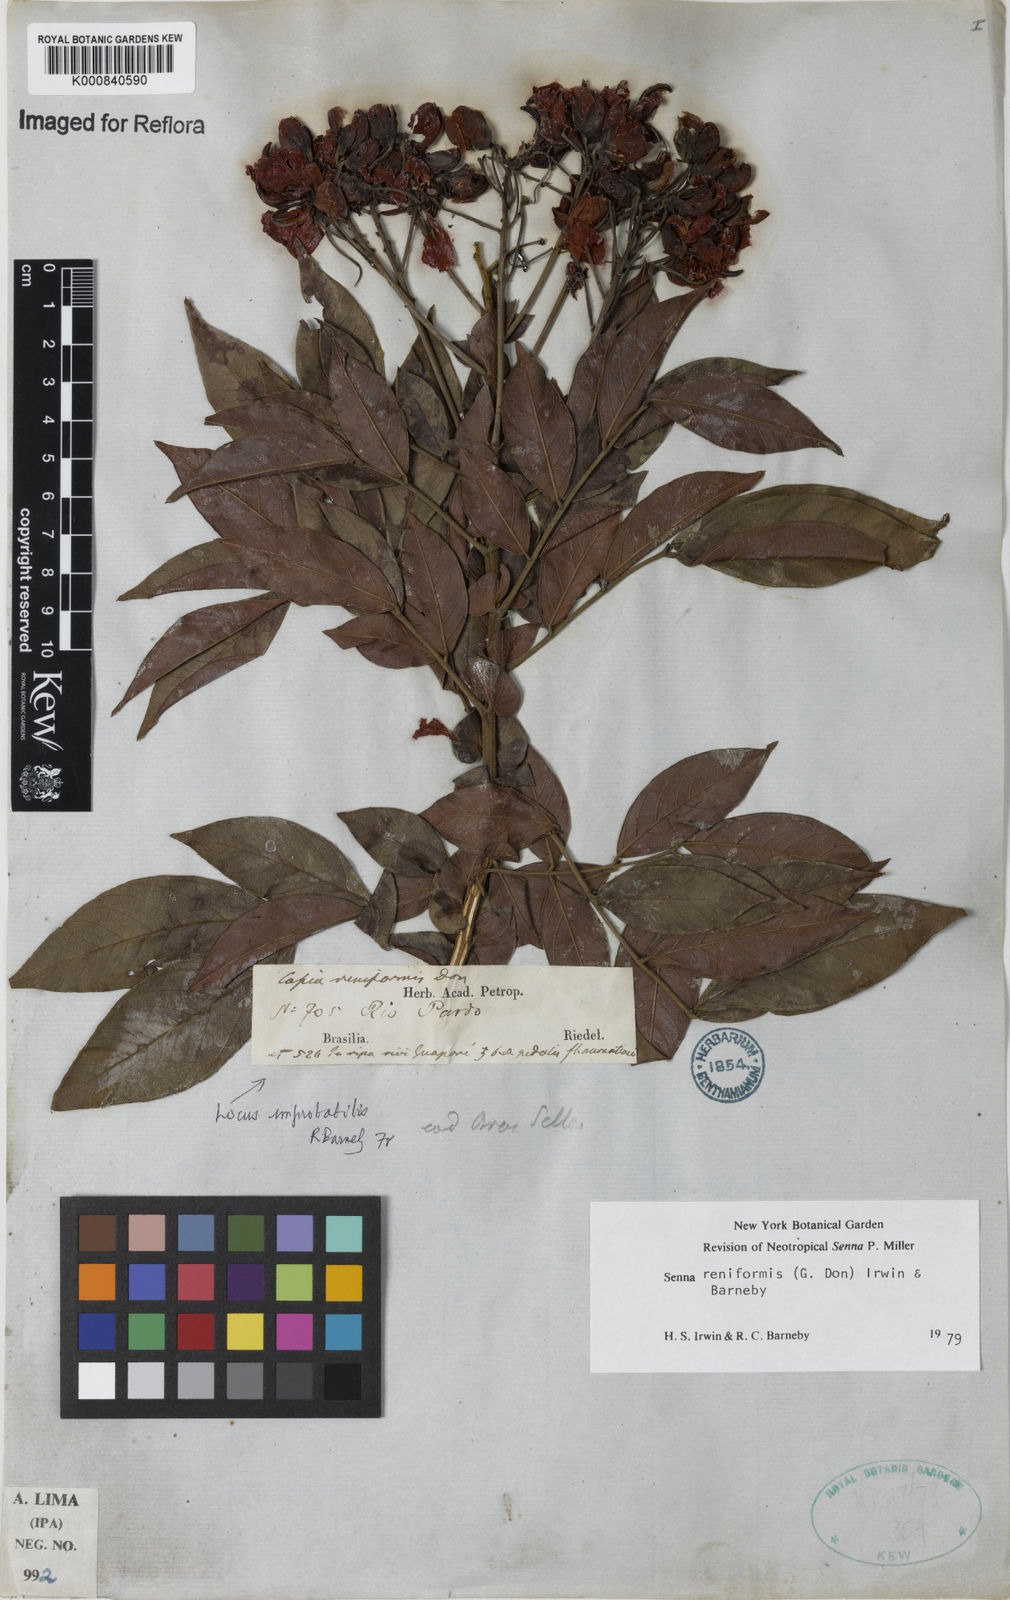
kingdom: Plantae
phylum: Tracheophyta
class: Magnoliopsida
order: Fabales
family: Fabaceae
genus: Senna
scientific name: Senna reniformis
